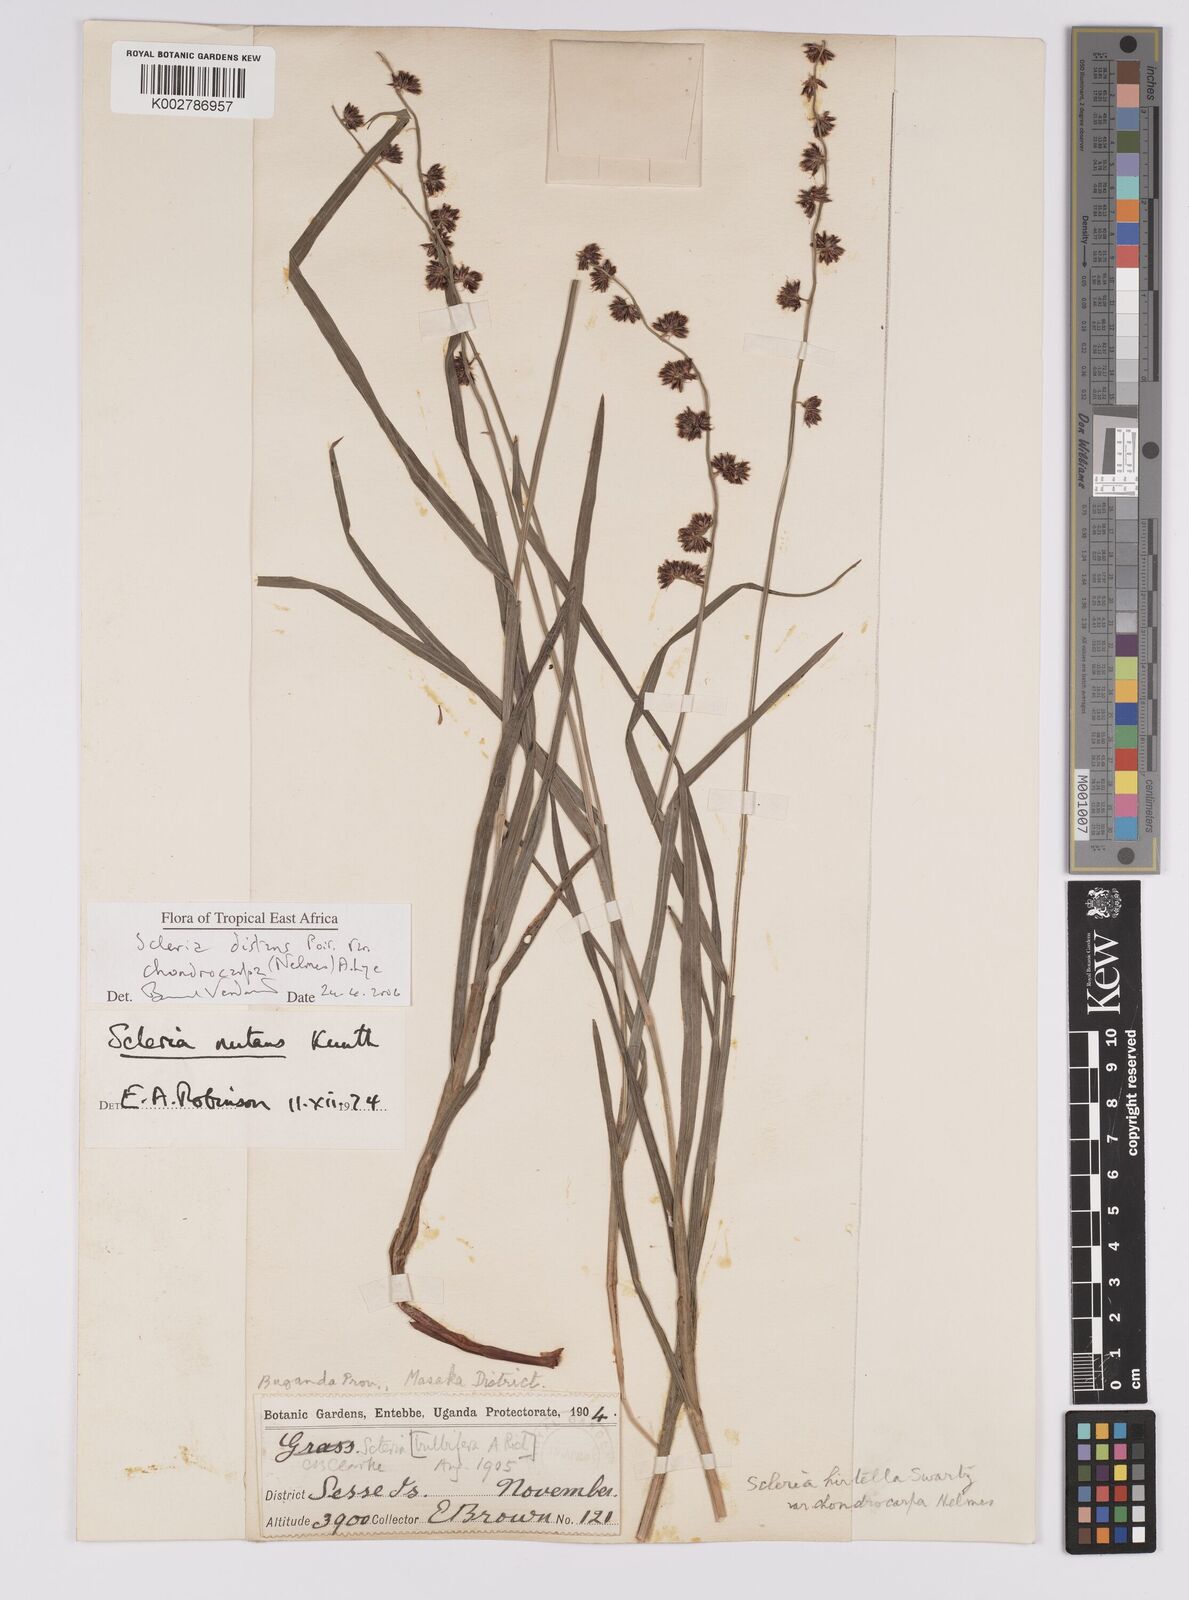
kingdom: Plantae
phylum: Tracheophyta
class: Liliopsida
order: Poales
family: Cyperaceae
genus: Scleria
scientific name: Scleria distans
